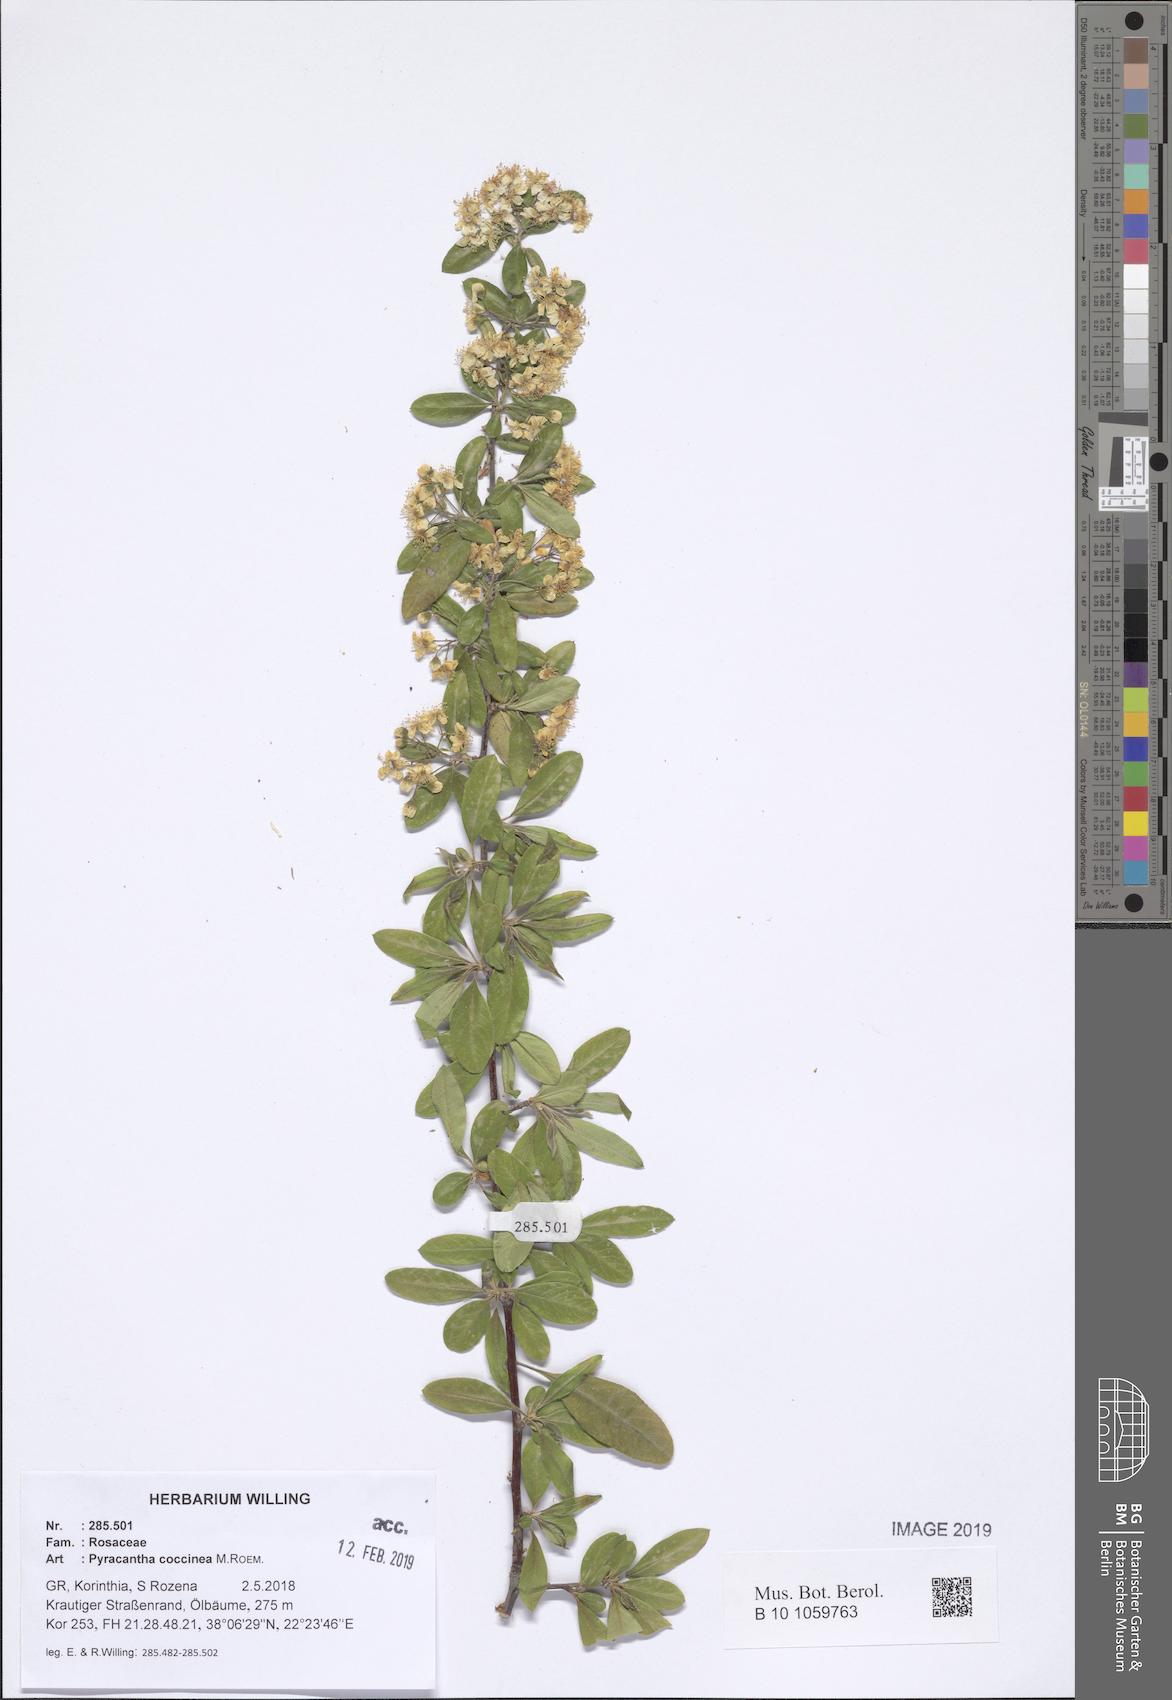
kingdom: Plantae
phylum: Tracheophyta
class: Magnoliopsida
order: Rosales
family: Rosaceae
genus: Pyracantha
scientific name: Pyracantha coccinea
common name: Firethorn
